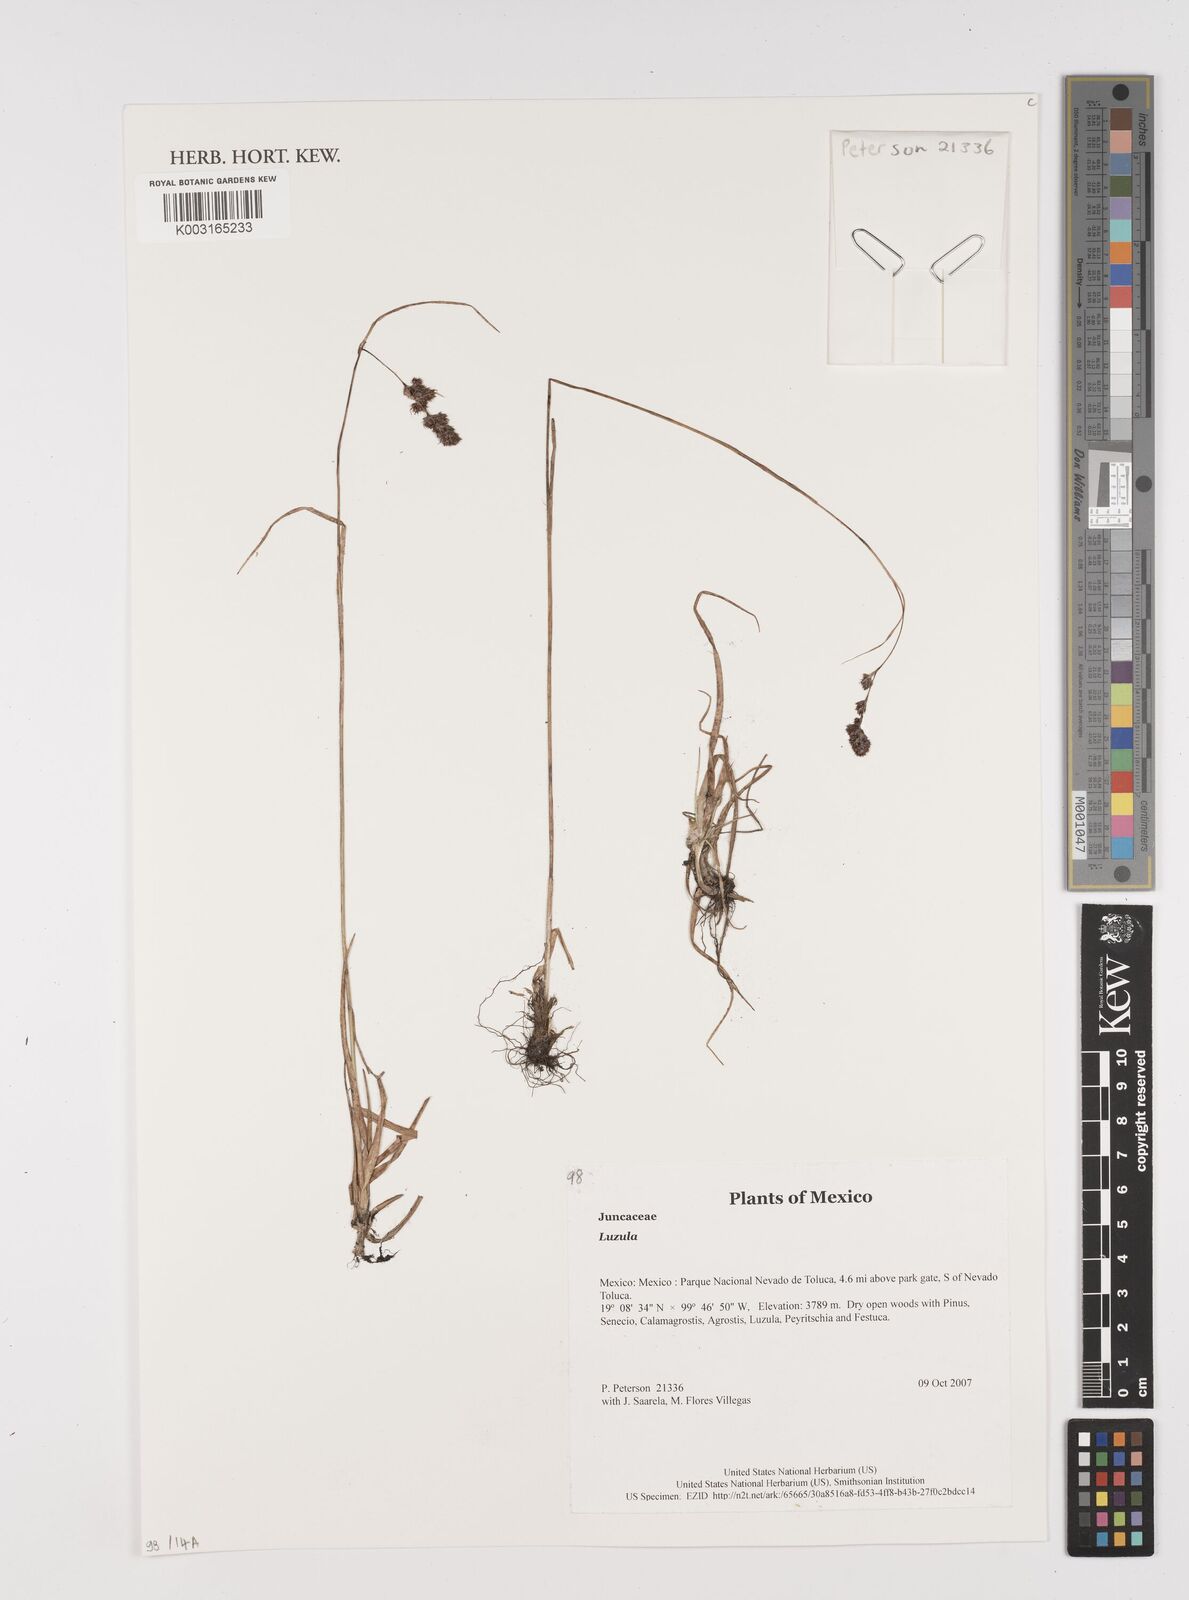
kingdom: Plantae
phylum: Tracheophyta
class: Liliopsida
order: Poales
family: Juncaceae
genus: Luzula
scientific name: Luzula
